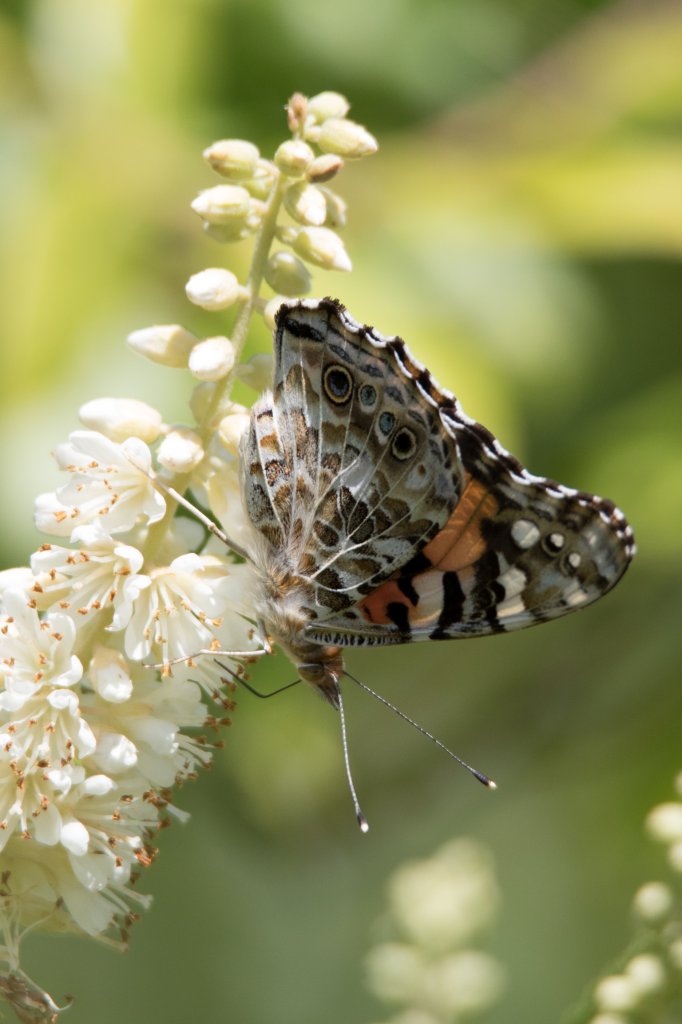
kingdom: Animalia
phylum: Arthropoda
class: Insecta
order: Lepidoptera
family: Nymphalidae
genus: Vanessa
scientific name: Vanessa cardui
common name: Painted Lady
